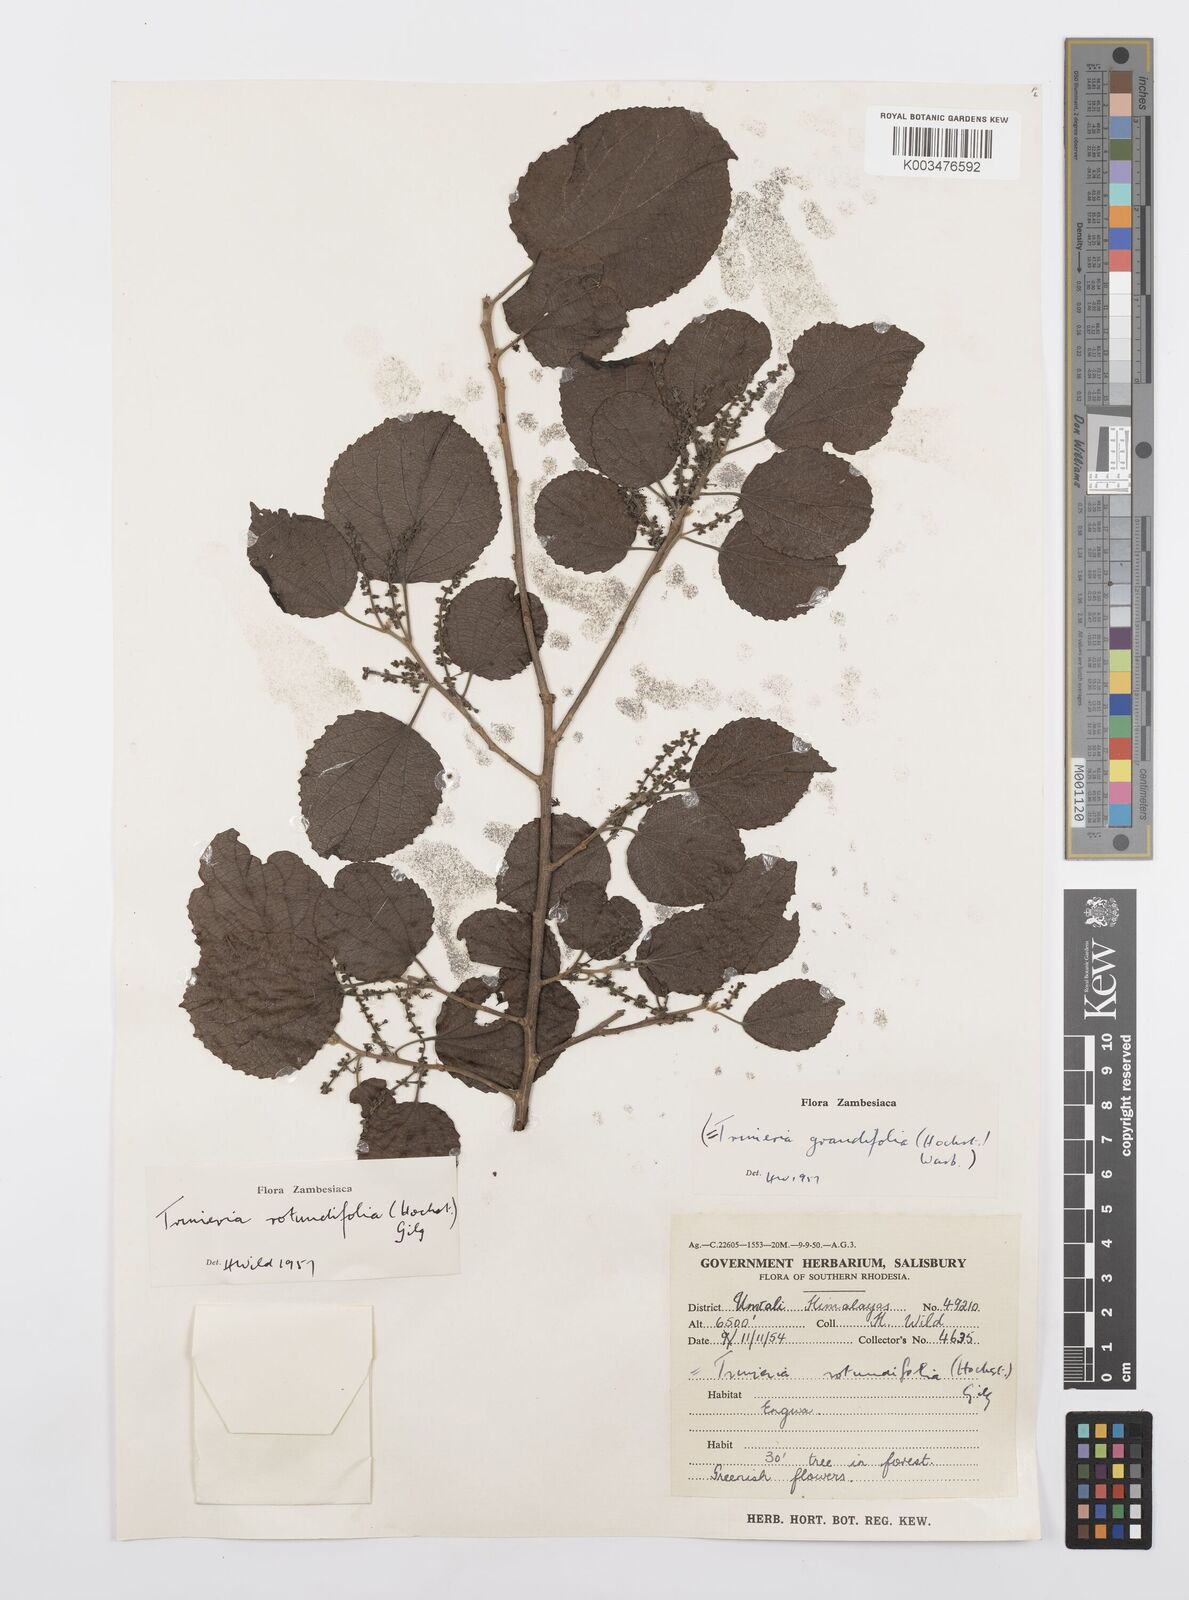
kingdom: Plantae
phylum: Tracheophyta
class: Magnoliopsida
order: Malpighiales
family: Salicaceae
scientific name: Salicaceae
